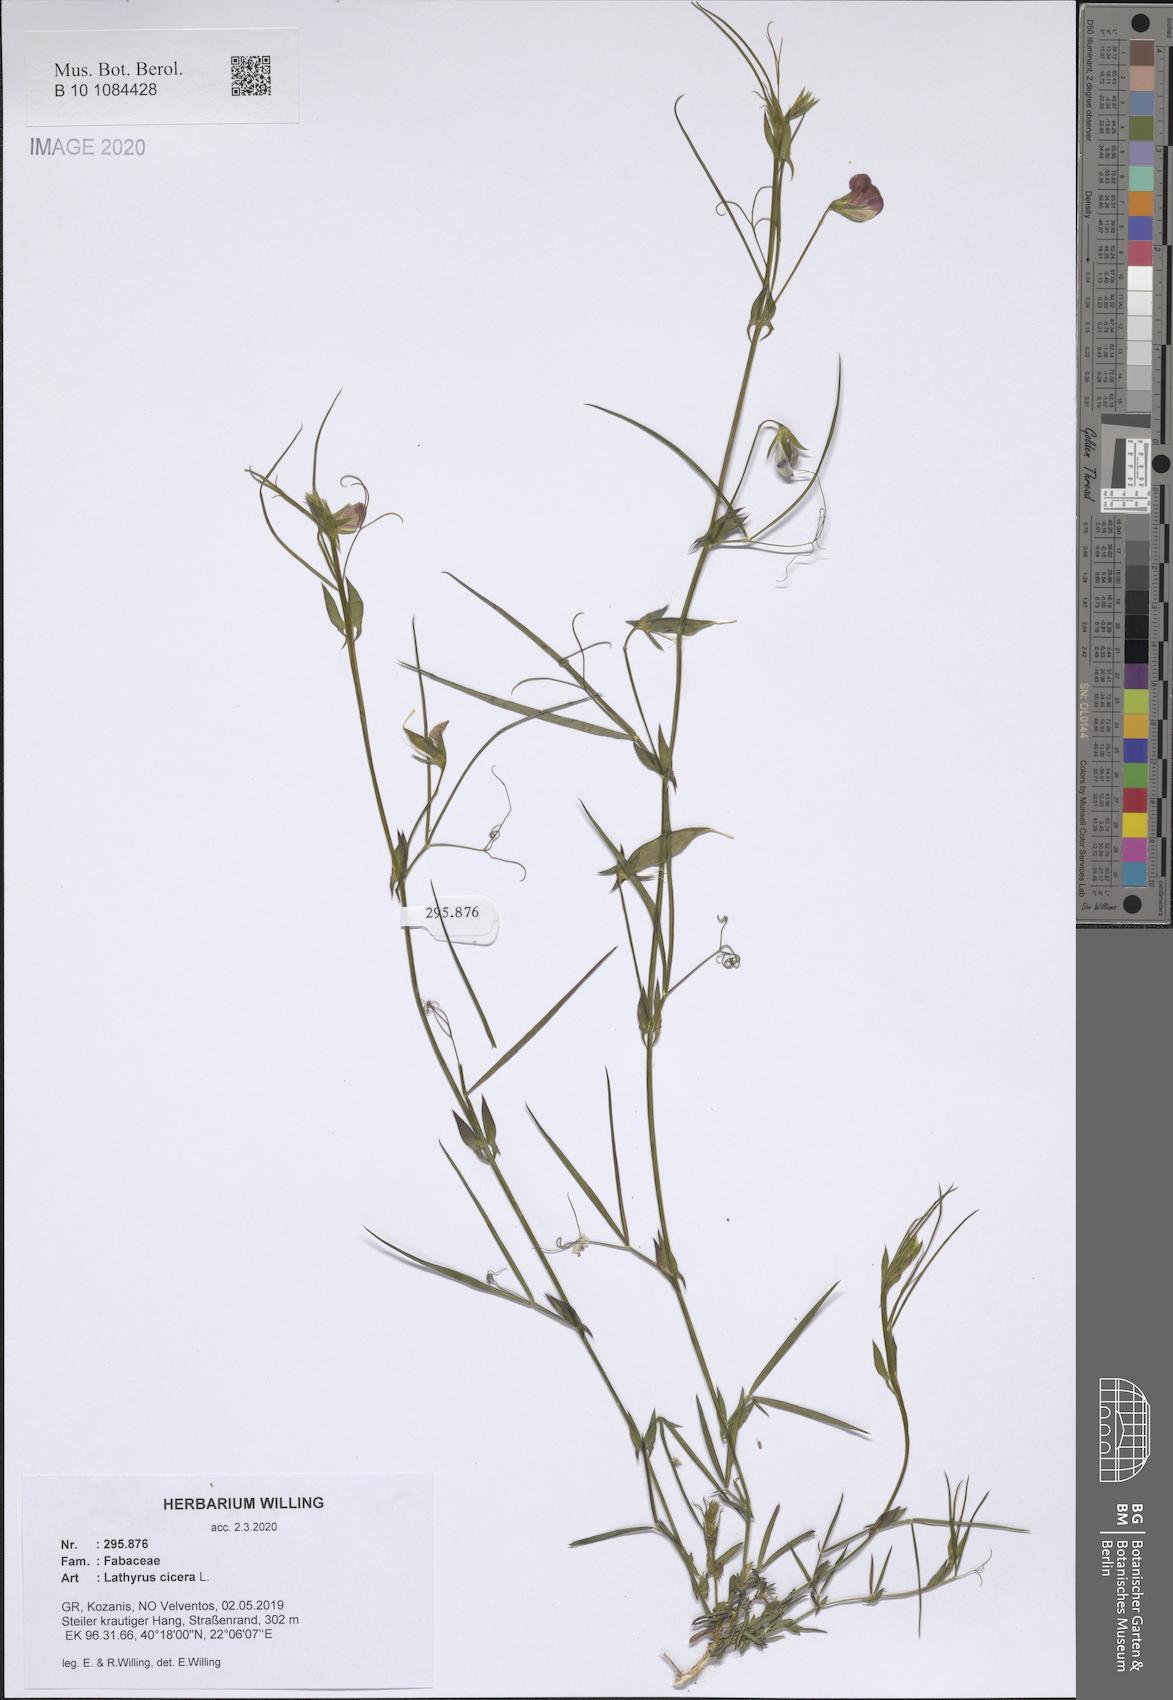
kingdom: Plantae
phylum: Tracheophyta
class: Magnoliopsida
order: Fabales
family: Fabaceae
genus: Lathyrus
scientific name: Lathyrus cicera
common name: Red vetchling
